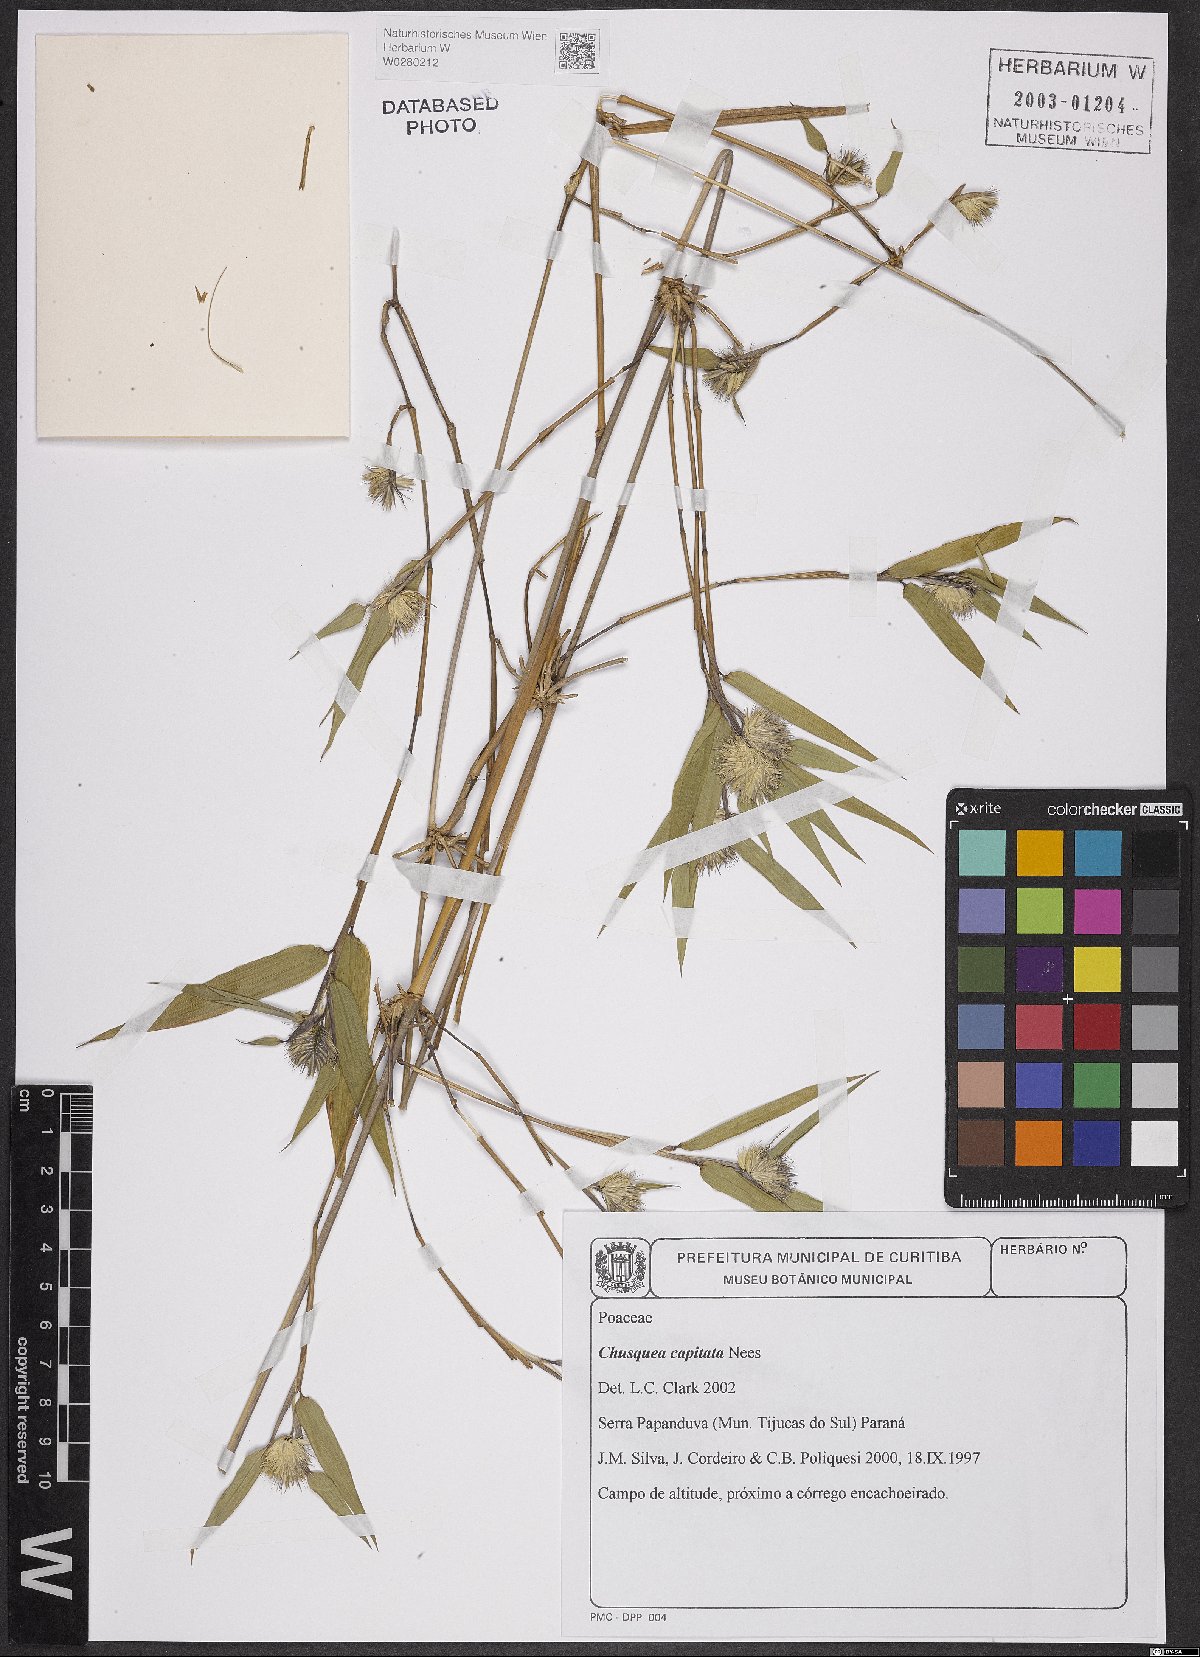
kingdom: Plantae
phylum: Tracheophyta
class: Liliopsida
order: Poales
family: Poaceae
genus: Chusquea
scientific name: Chusquea capitata
